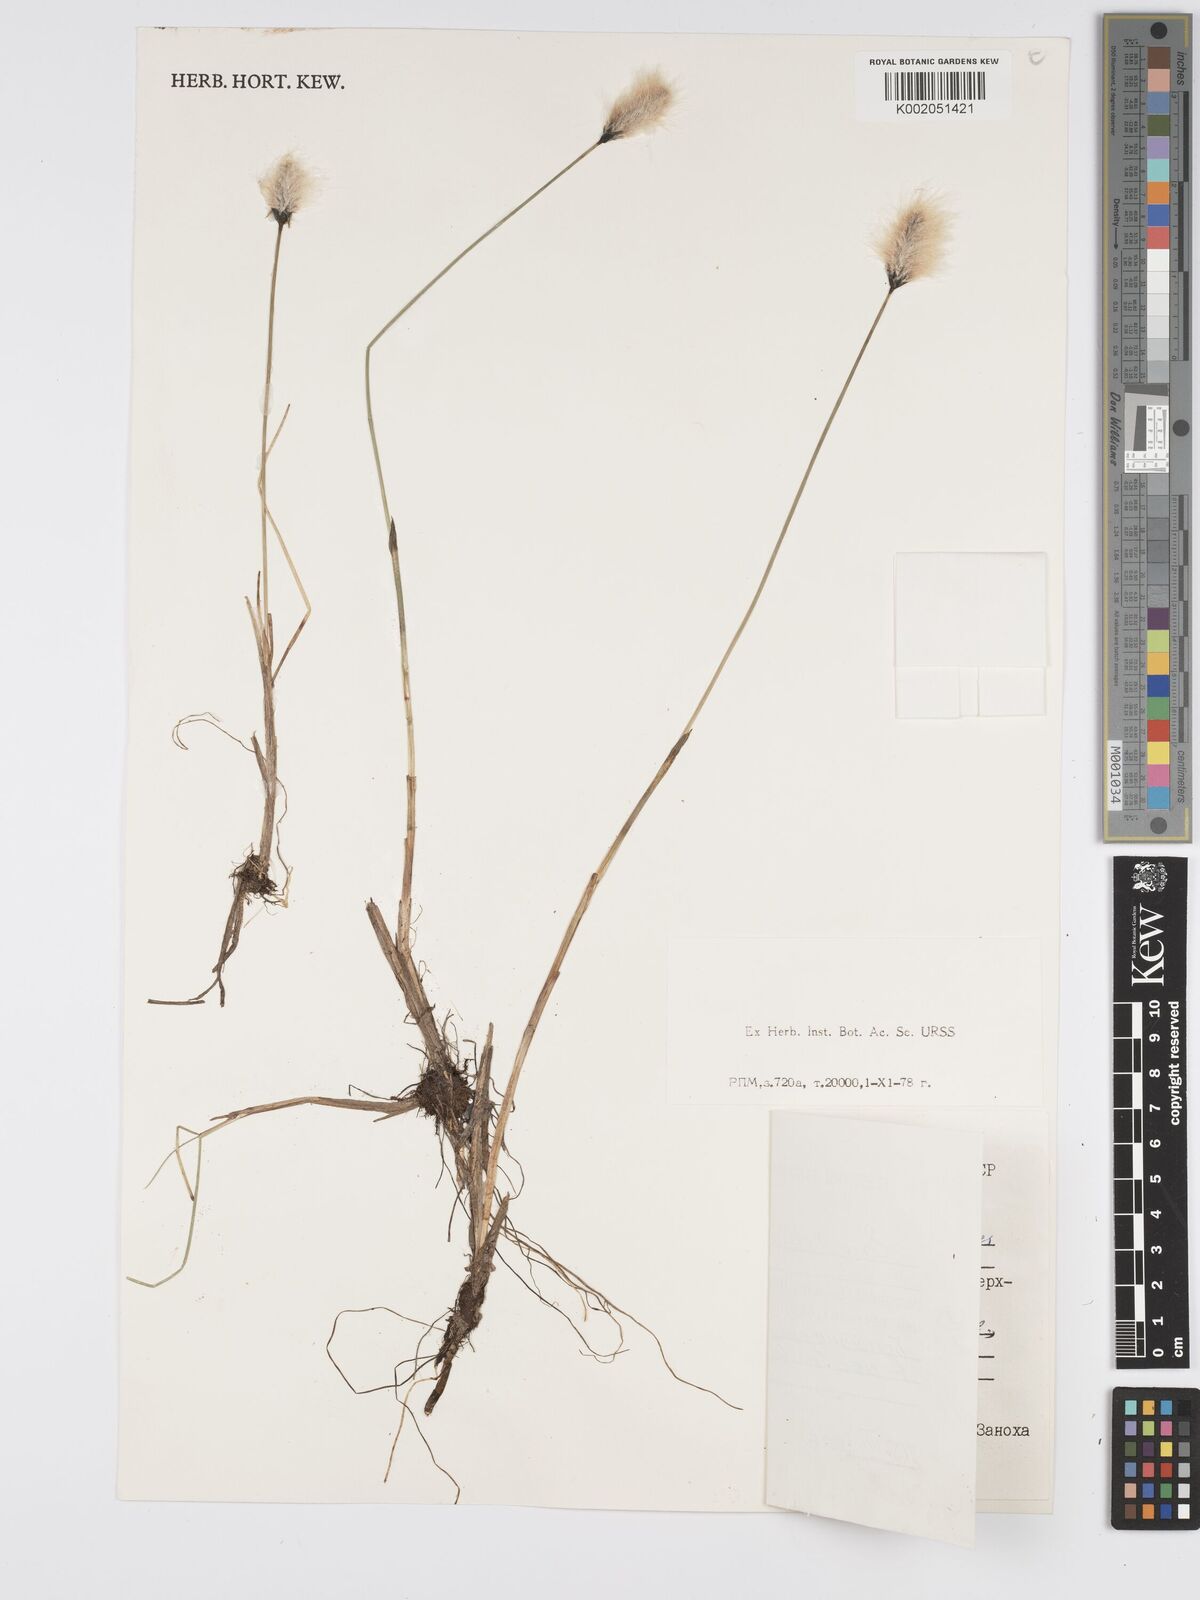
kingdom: Plantae
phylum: Tracheophyta
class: Liliopsida
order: Poales
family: Cyperaceae
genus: Eriophorum
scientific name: Eriophorum scheuchzeri
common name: Scheuchzer's cottongrass
